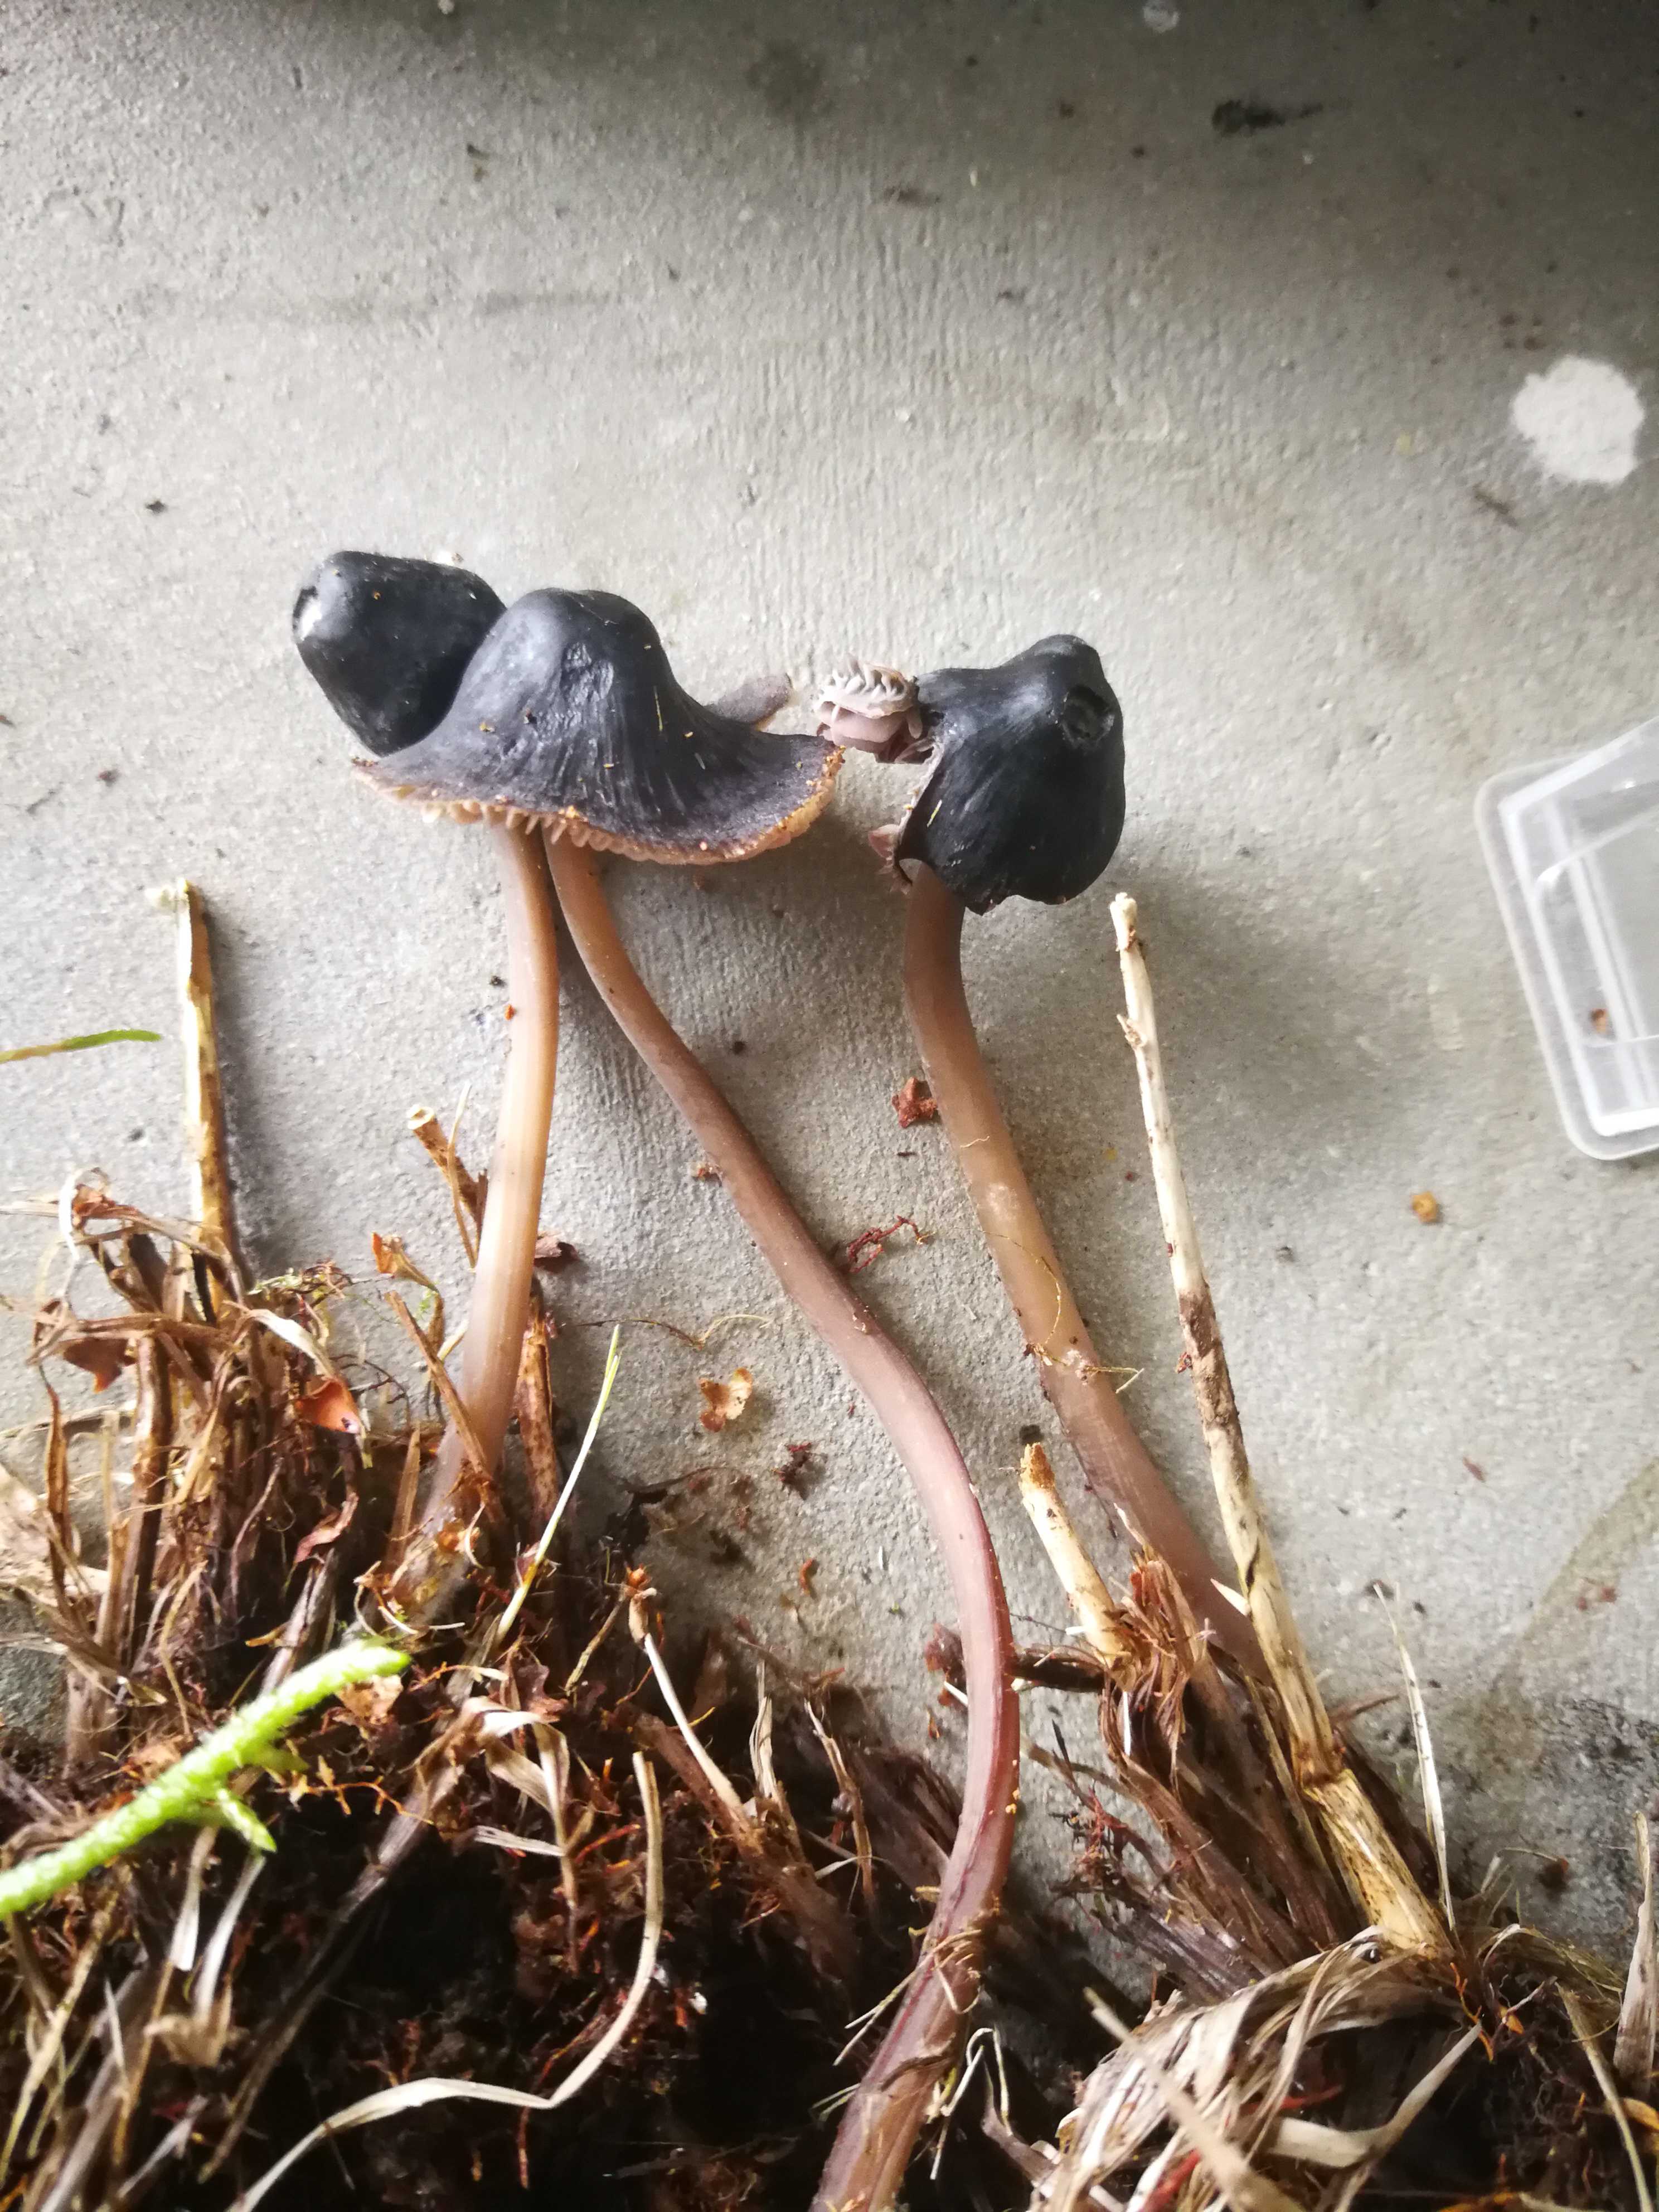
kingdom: Fungi
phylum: Basidiomycota
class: Agaricomycetes
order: Agaricales
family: Mycenaceae
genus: Mycena
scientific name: Mycena
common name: huesvamp
